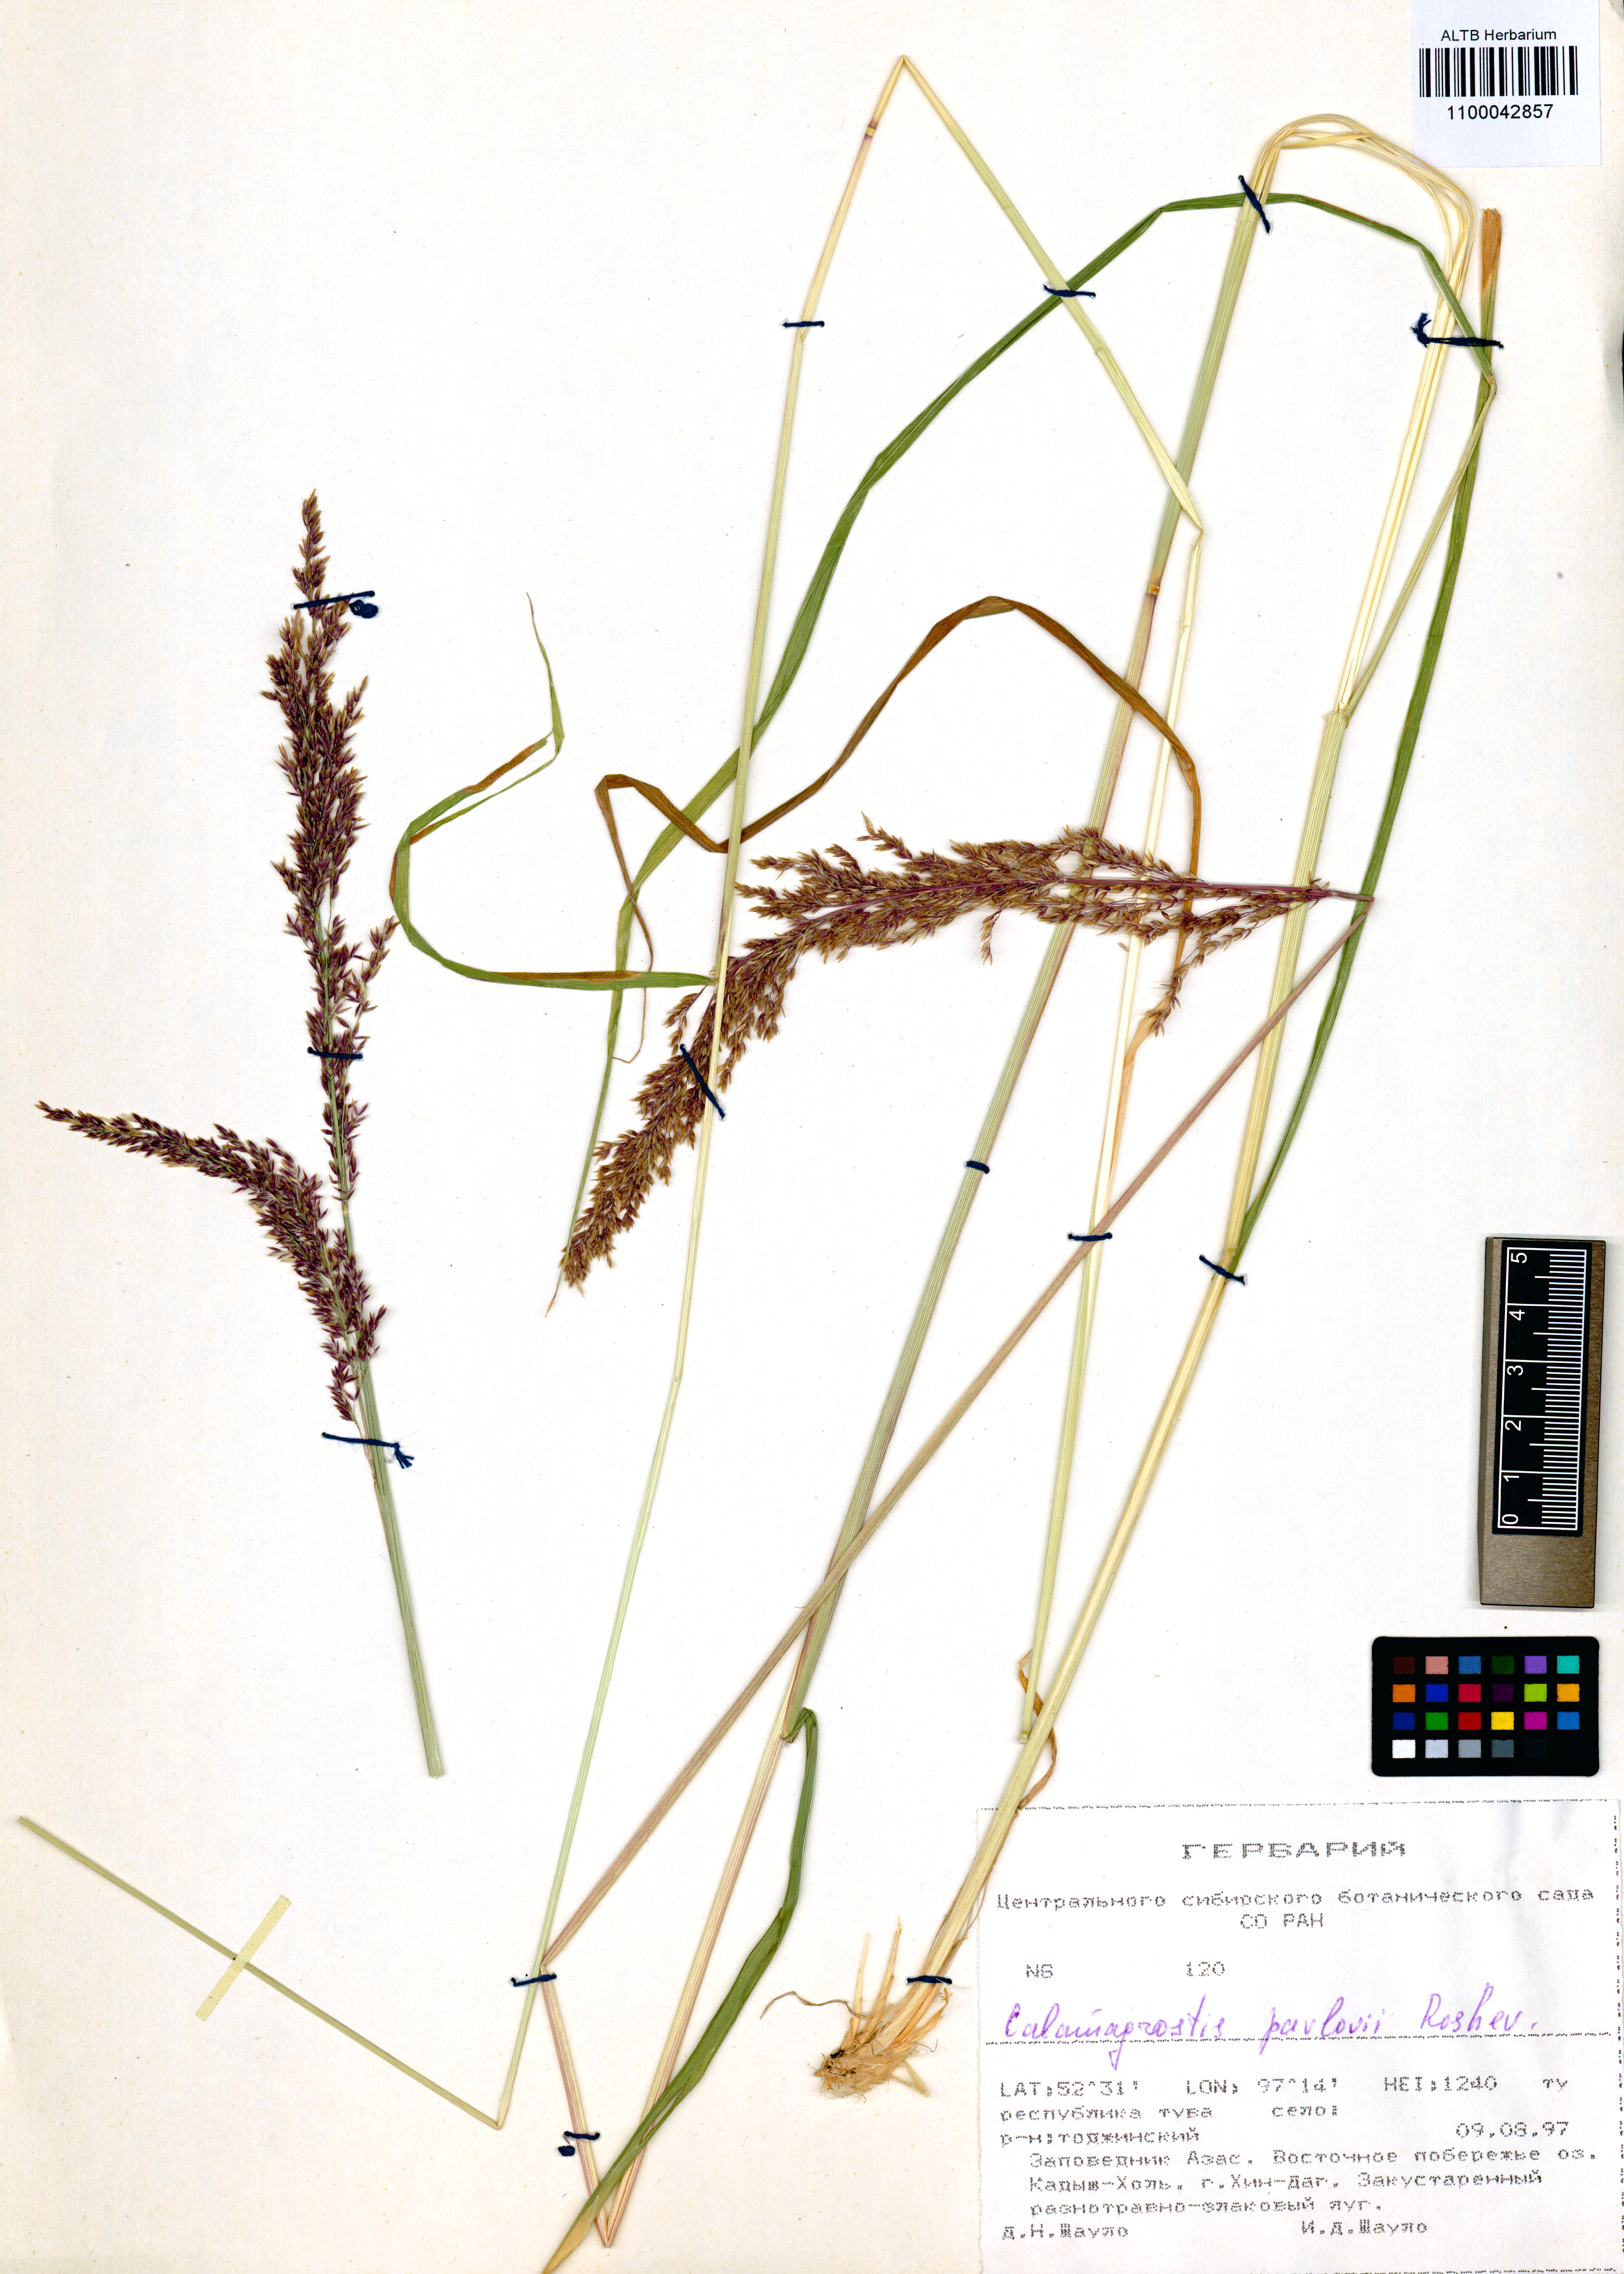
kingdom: Plantae
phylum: Tracheophyta
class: Liliopsida
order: Poales
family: Poaceae
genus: Calamagrostis
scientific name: Calamagrostis pavlovii
